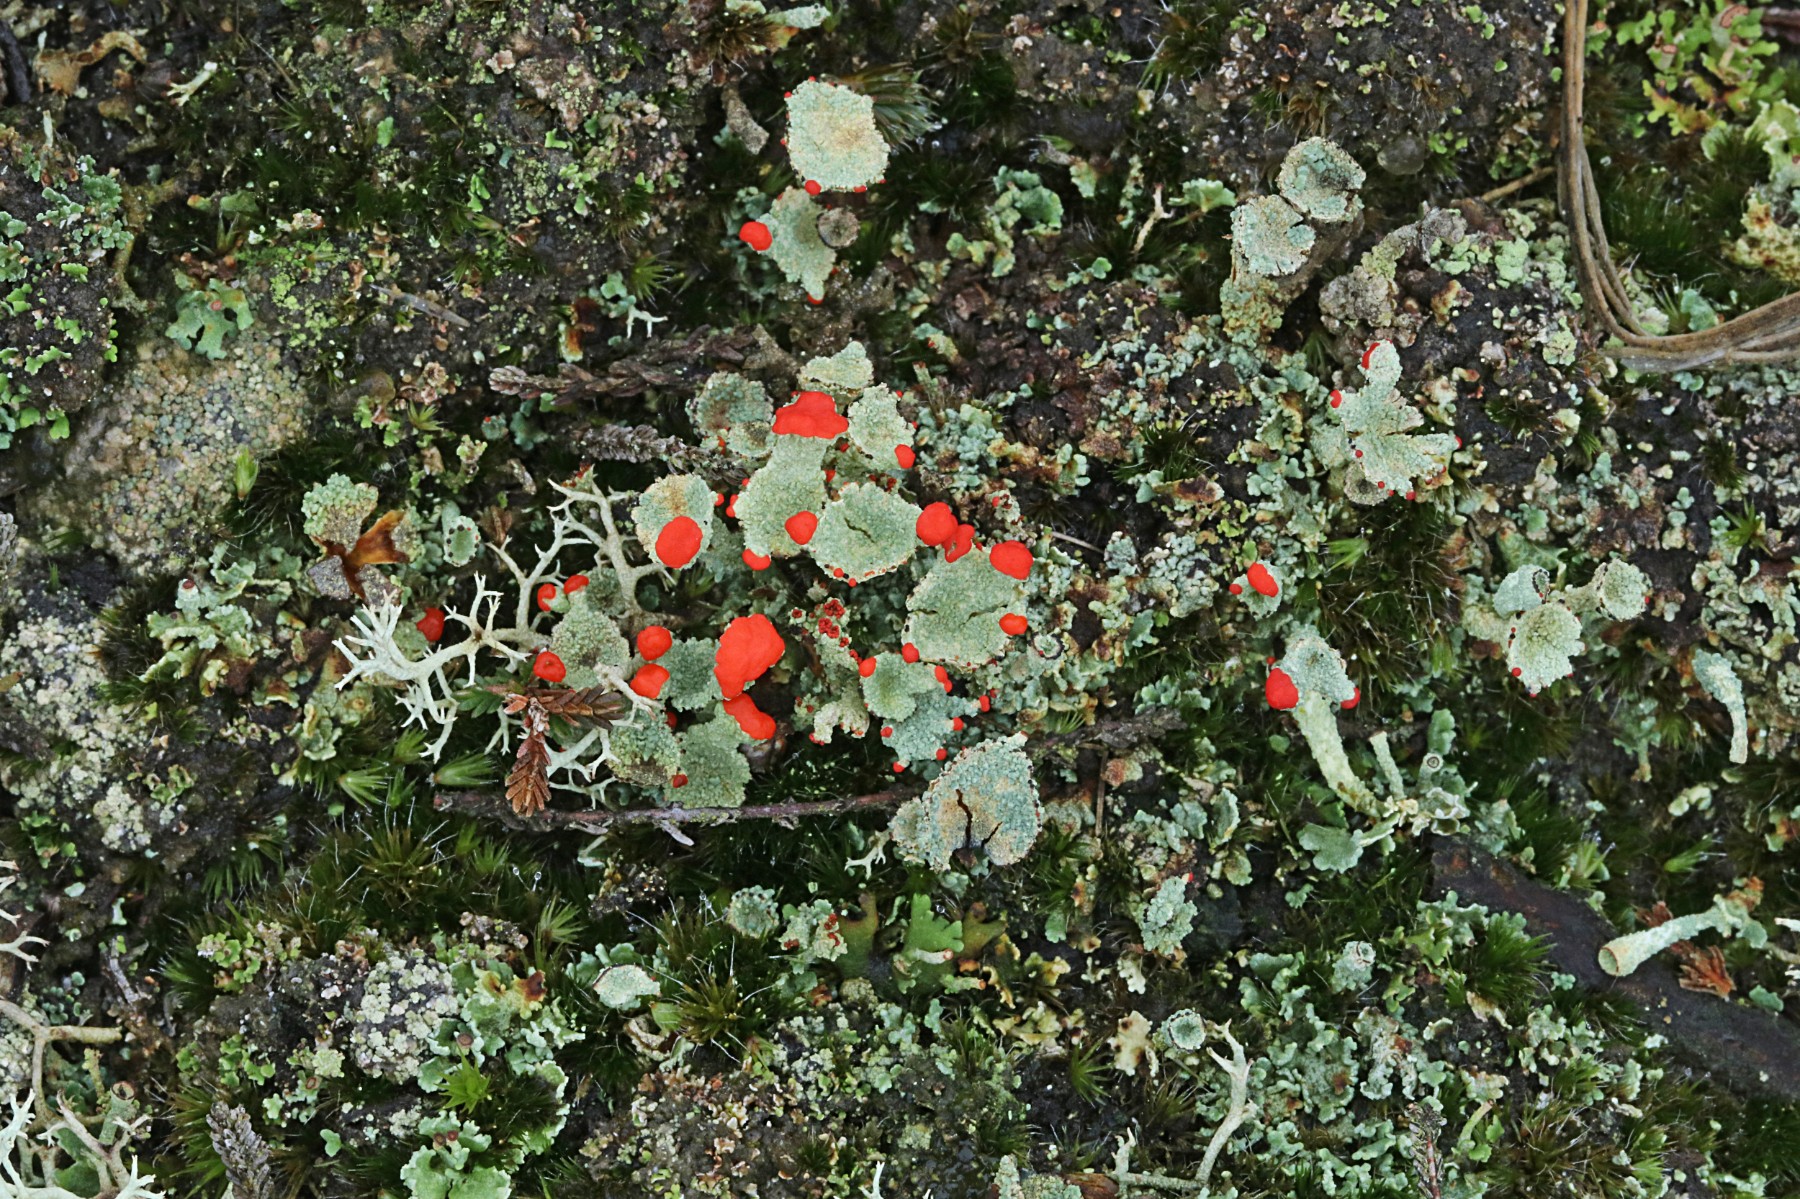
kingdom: Fungi
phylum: Ascomycota
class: Lecanoromycetes
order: Lecanorales
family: Cladoniaceae
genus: Cladonia
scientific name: Cladonia diversa
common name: rød bægerlav
